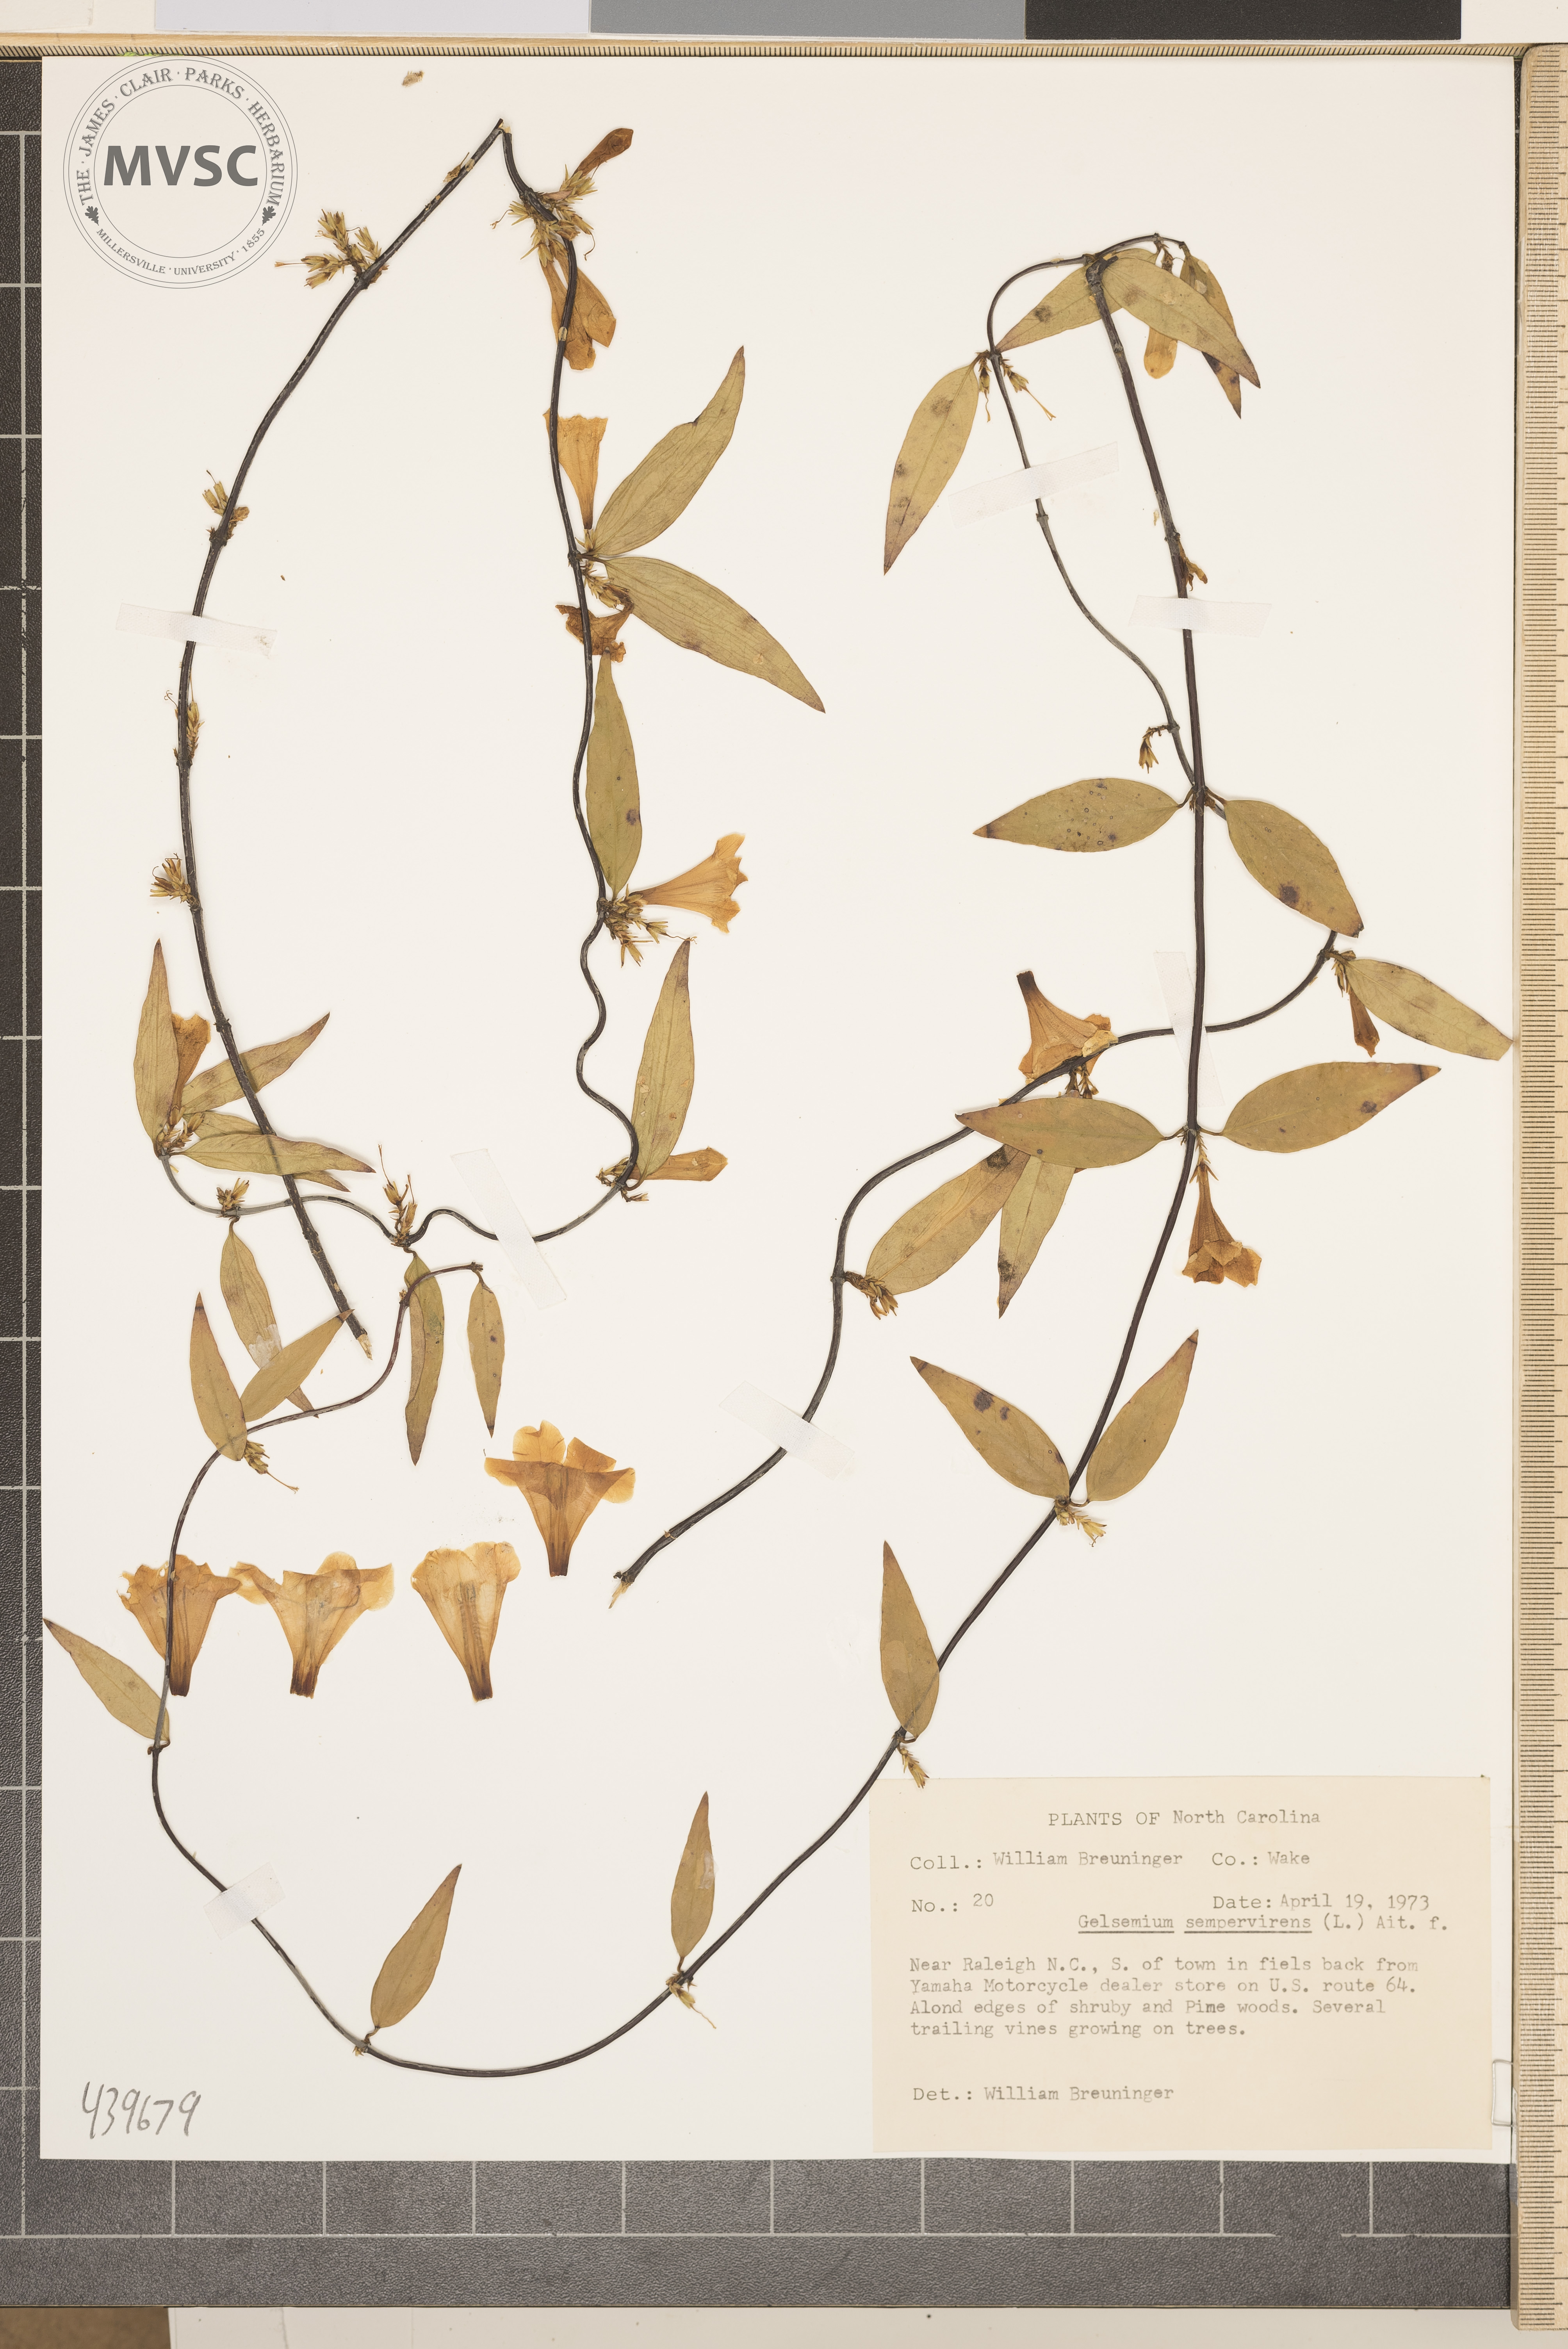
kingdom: Plantae
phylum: Tracheophyta
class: Magnoliopsida
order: Gentianales
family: Gelsemiaceae
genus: Gelsemium
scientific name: Gelsemium sempervirens
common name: Carolina-jasmine
